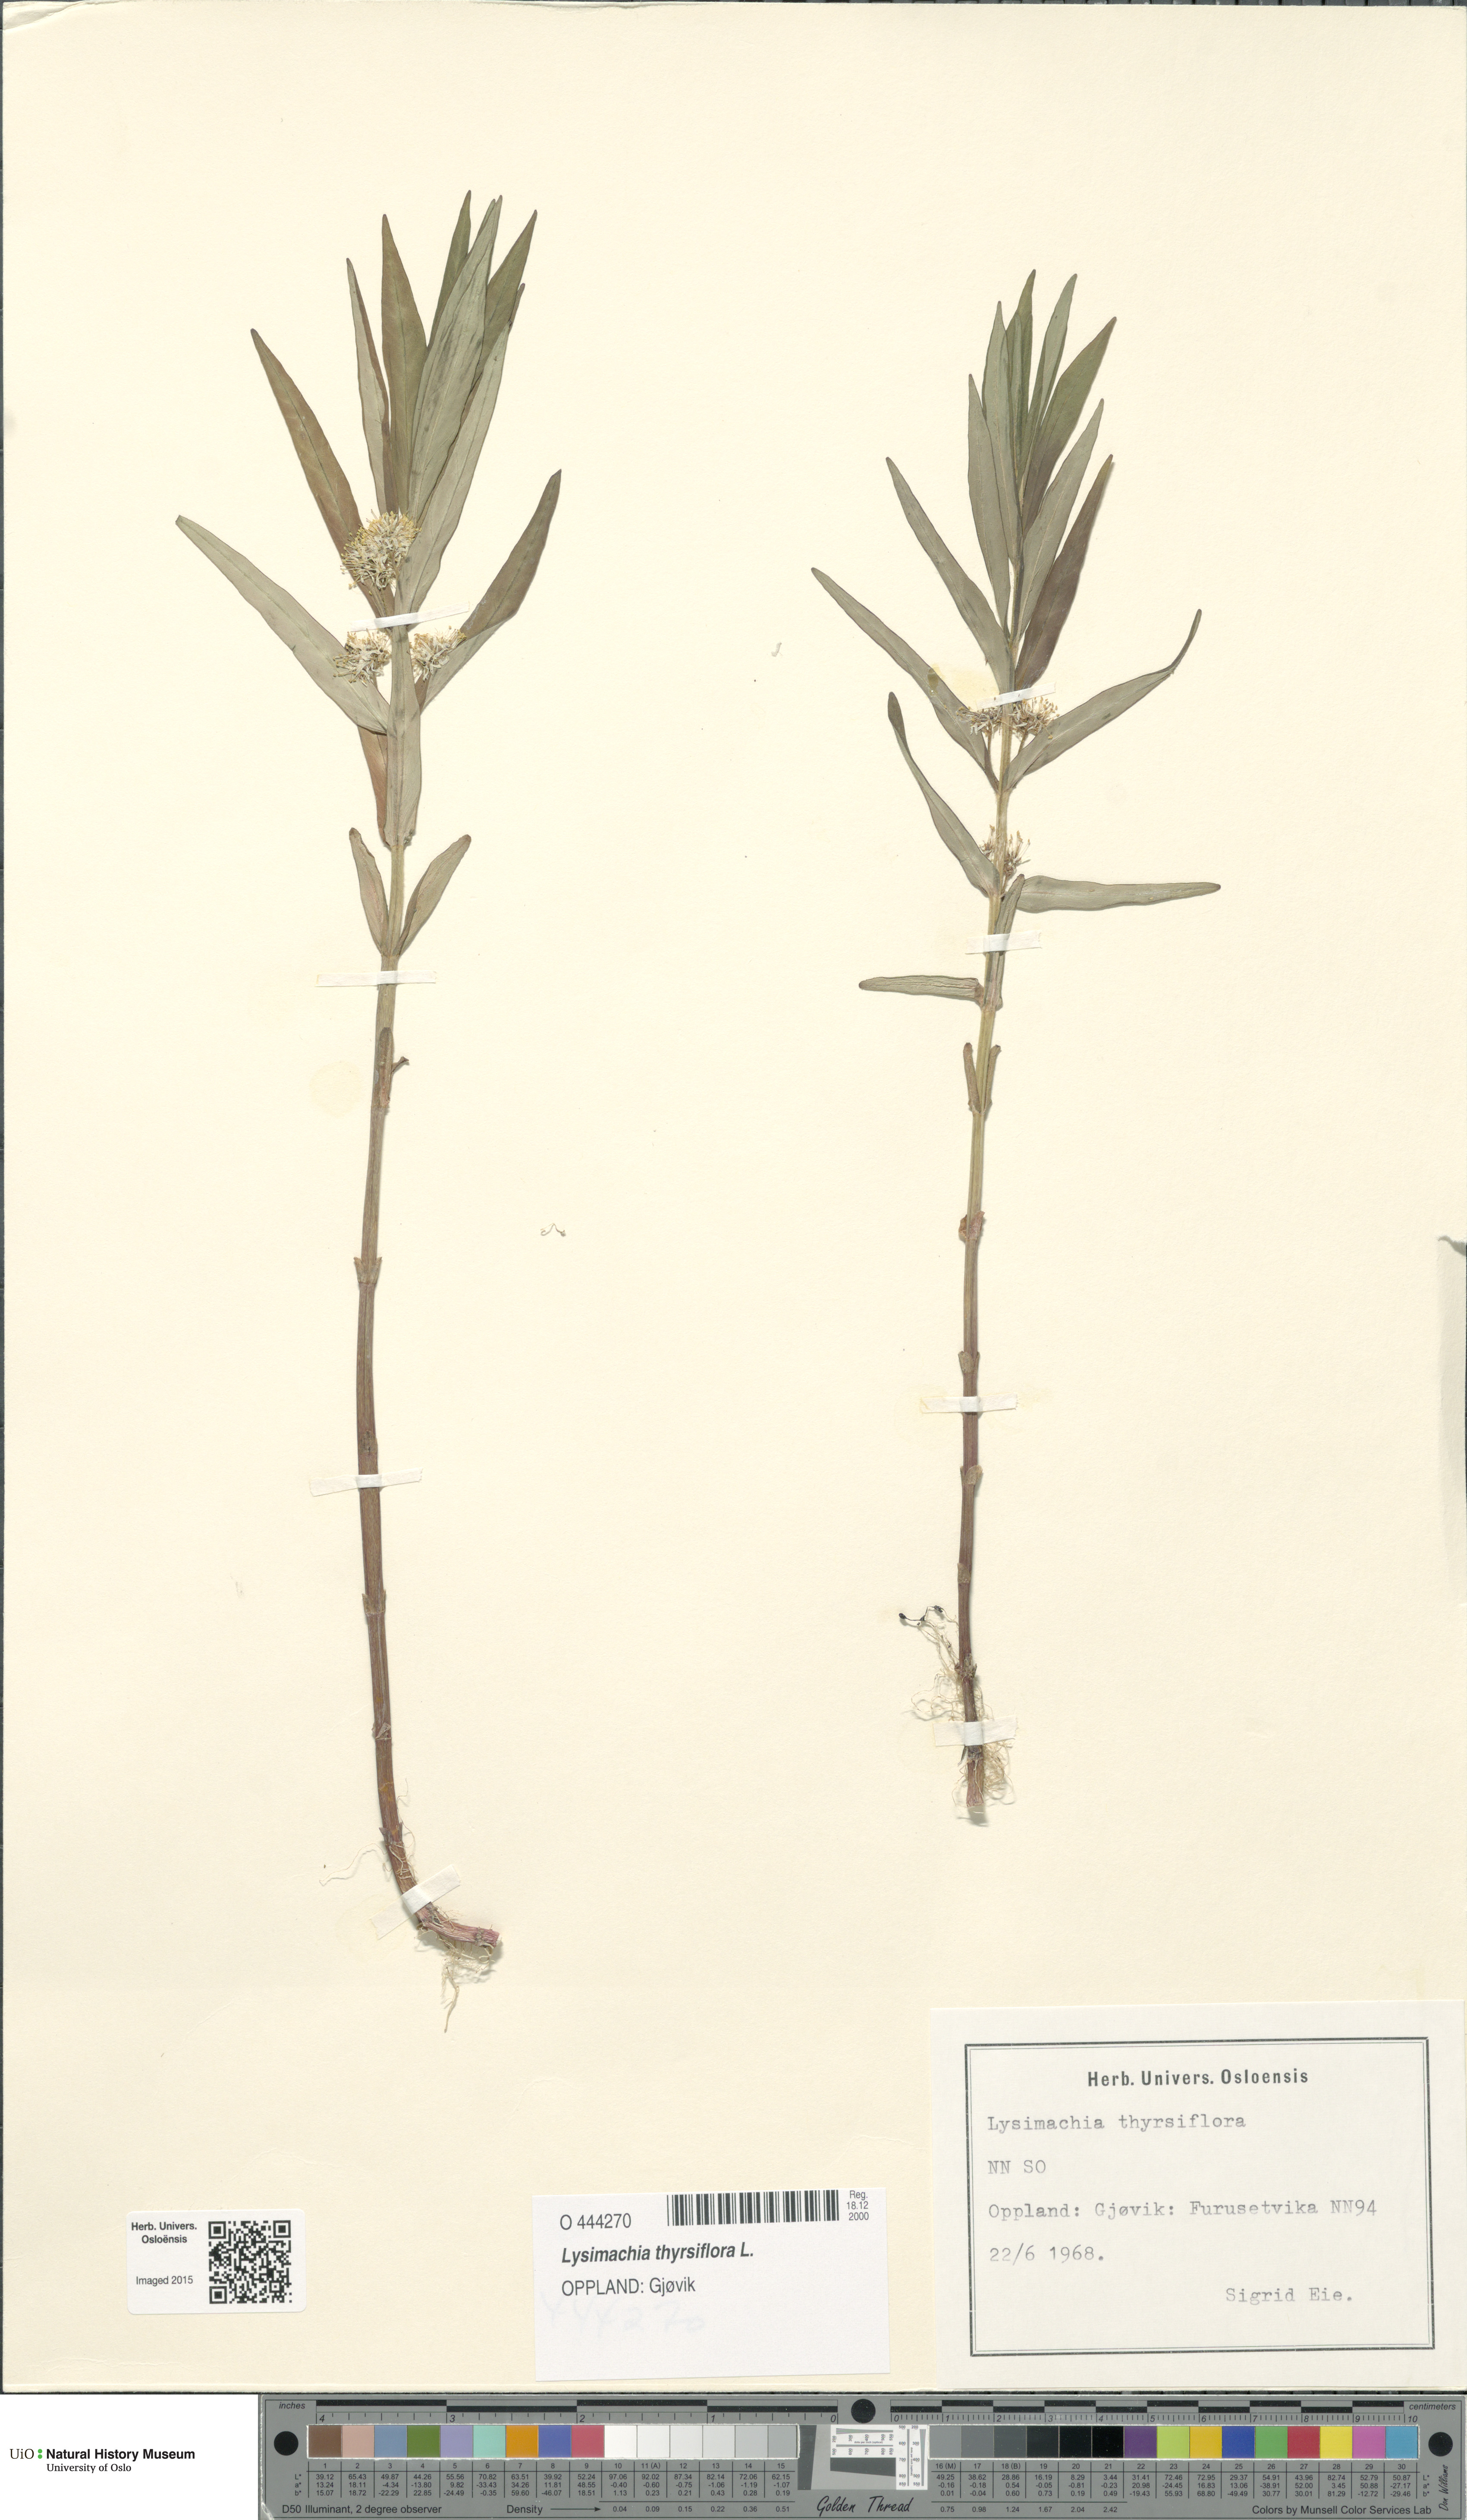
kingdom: Plantae
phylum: Tracheophyta
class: Magnoliopsida
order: Ericales
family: Primulaceae
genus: Lysimachia
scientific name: Lysimachia thyrsiflora
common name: Tufted loosestrife
